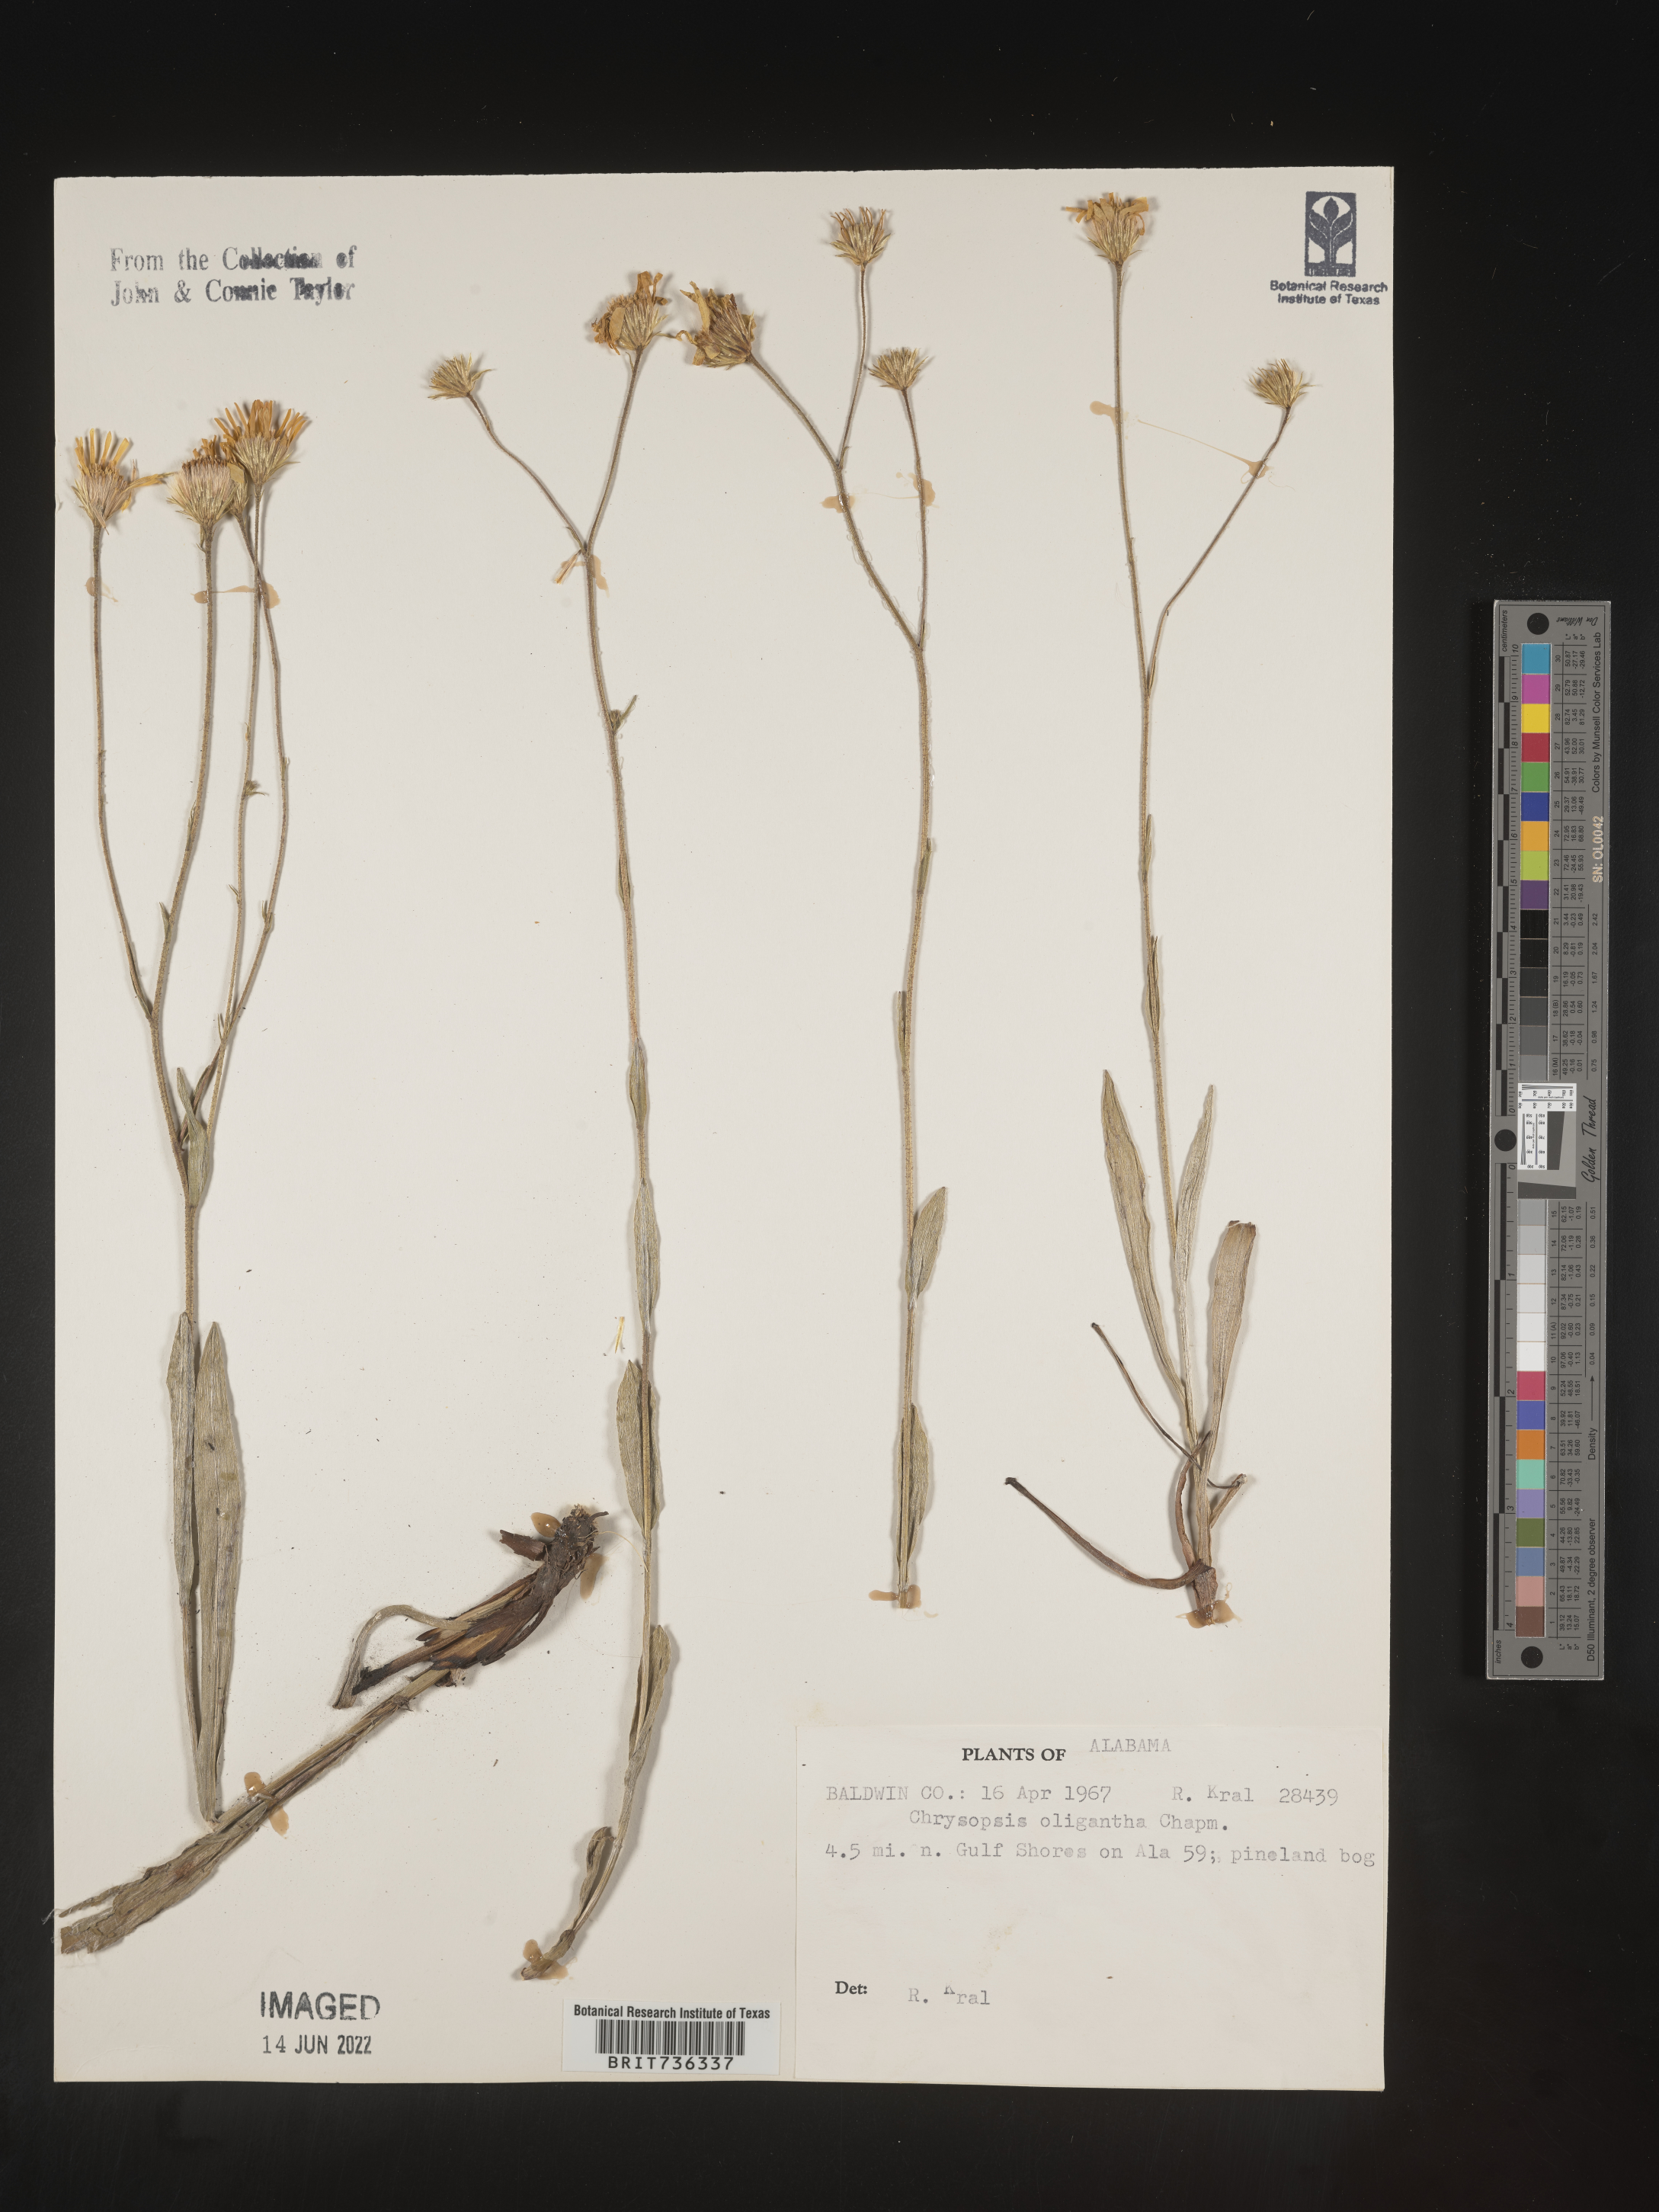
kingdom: Plantae
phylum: Tracheophyta
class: Magnoliopsida
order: Asterales
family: Asteraceae
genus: Pityopsis
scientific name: Pityopsis oligantha
